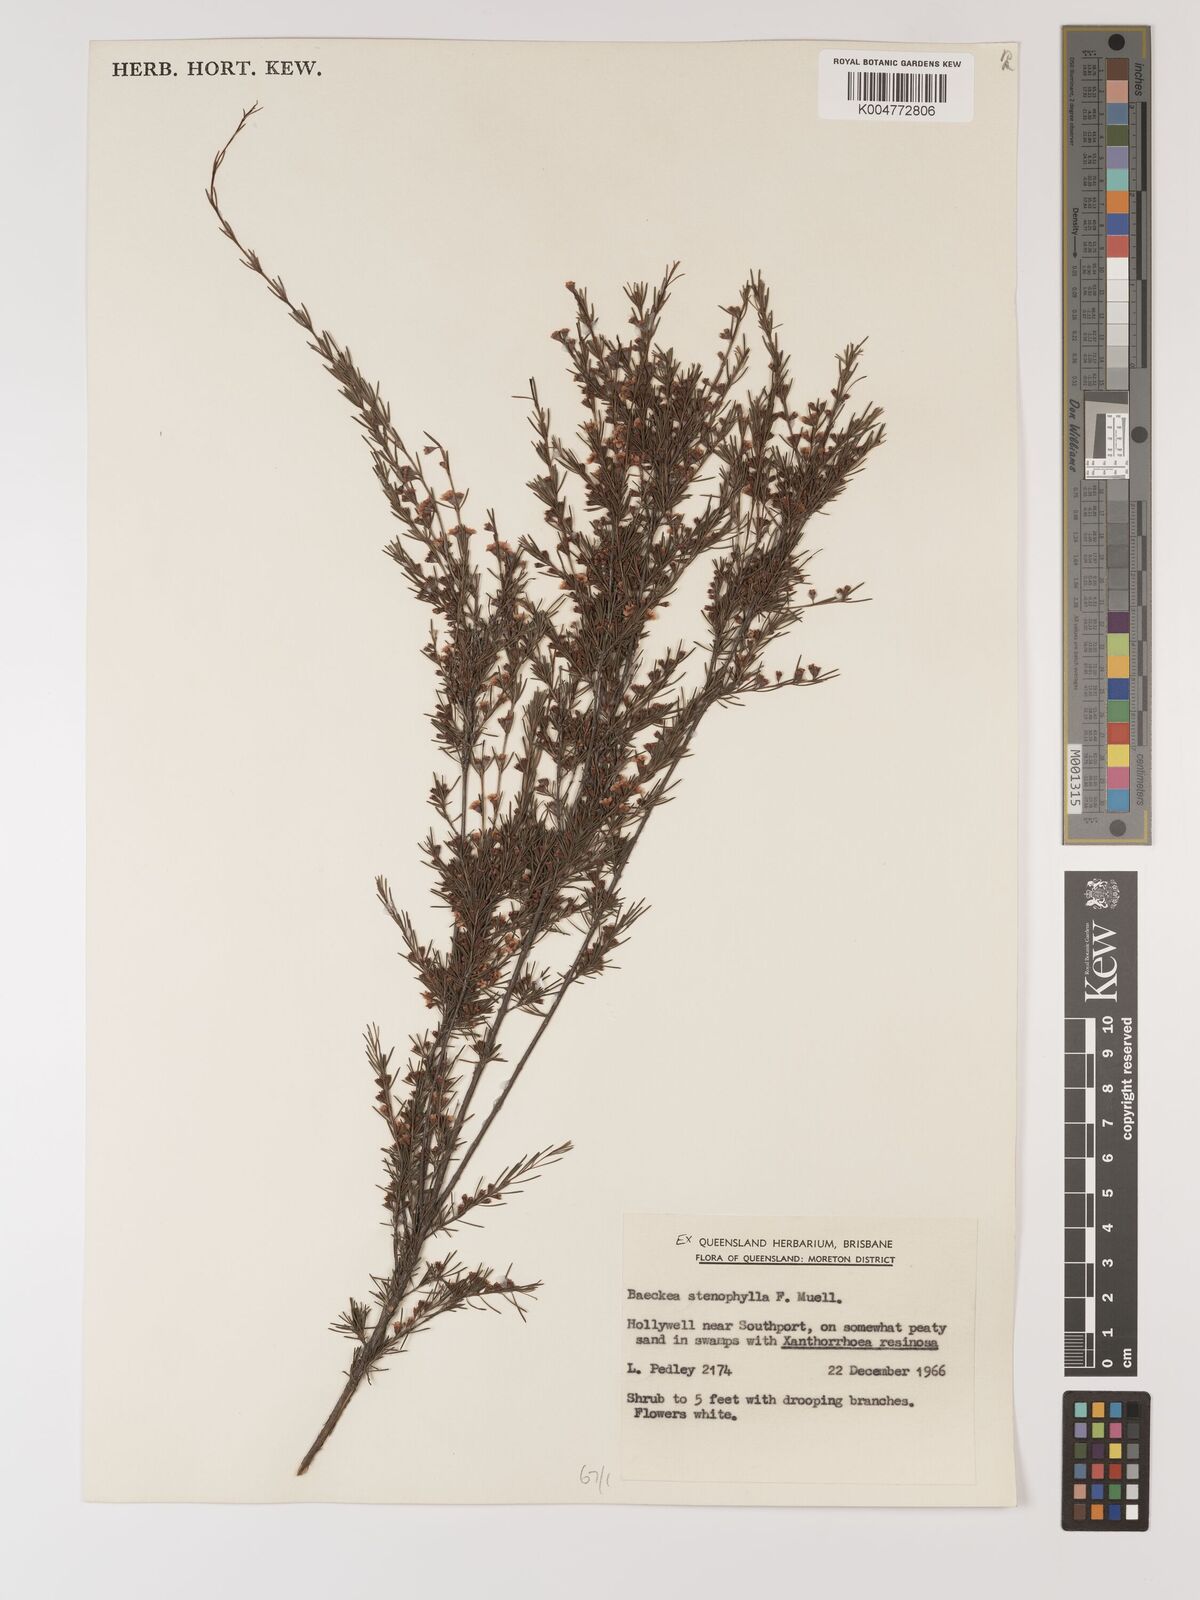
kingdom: Plantae
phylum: Tracheophyta
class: Magnoliopsida
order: Myrtales
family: Myrtaceae
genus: Baeckea
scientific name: Baeckea frutescens
